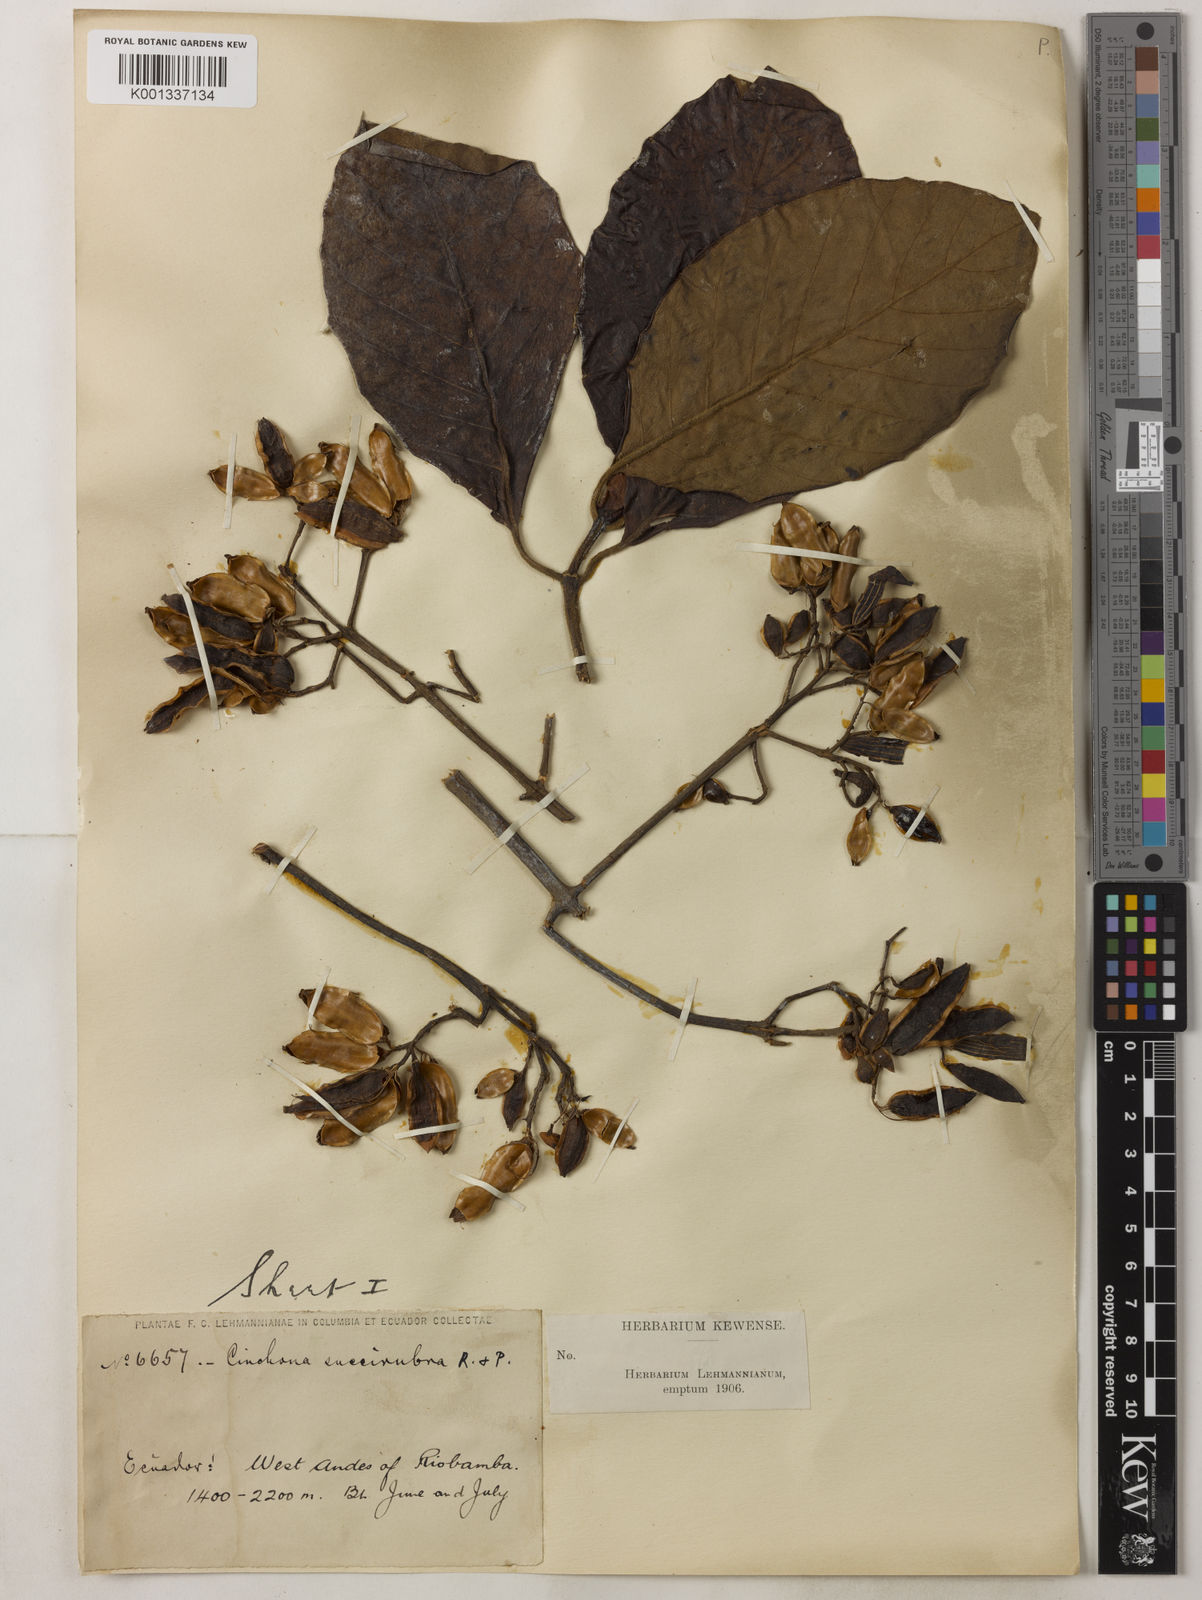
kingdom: Plantae
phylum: Tracheophyta
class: Magnoliopsida
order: Gentianales
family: Rubiaceae
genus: Cinchona
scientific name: Cinchona pubescens
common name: Quinine
